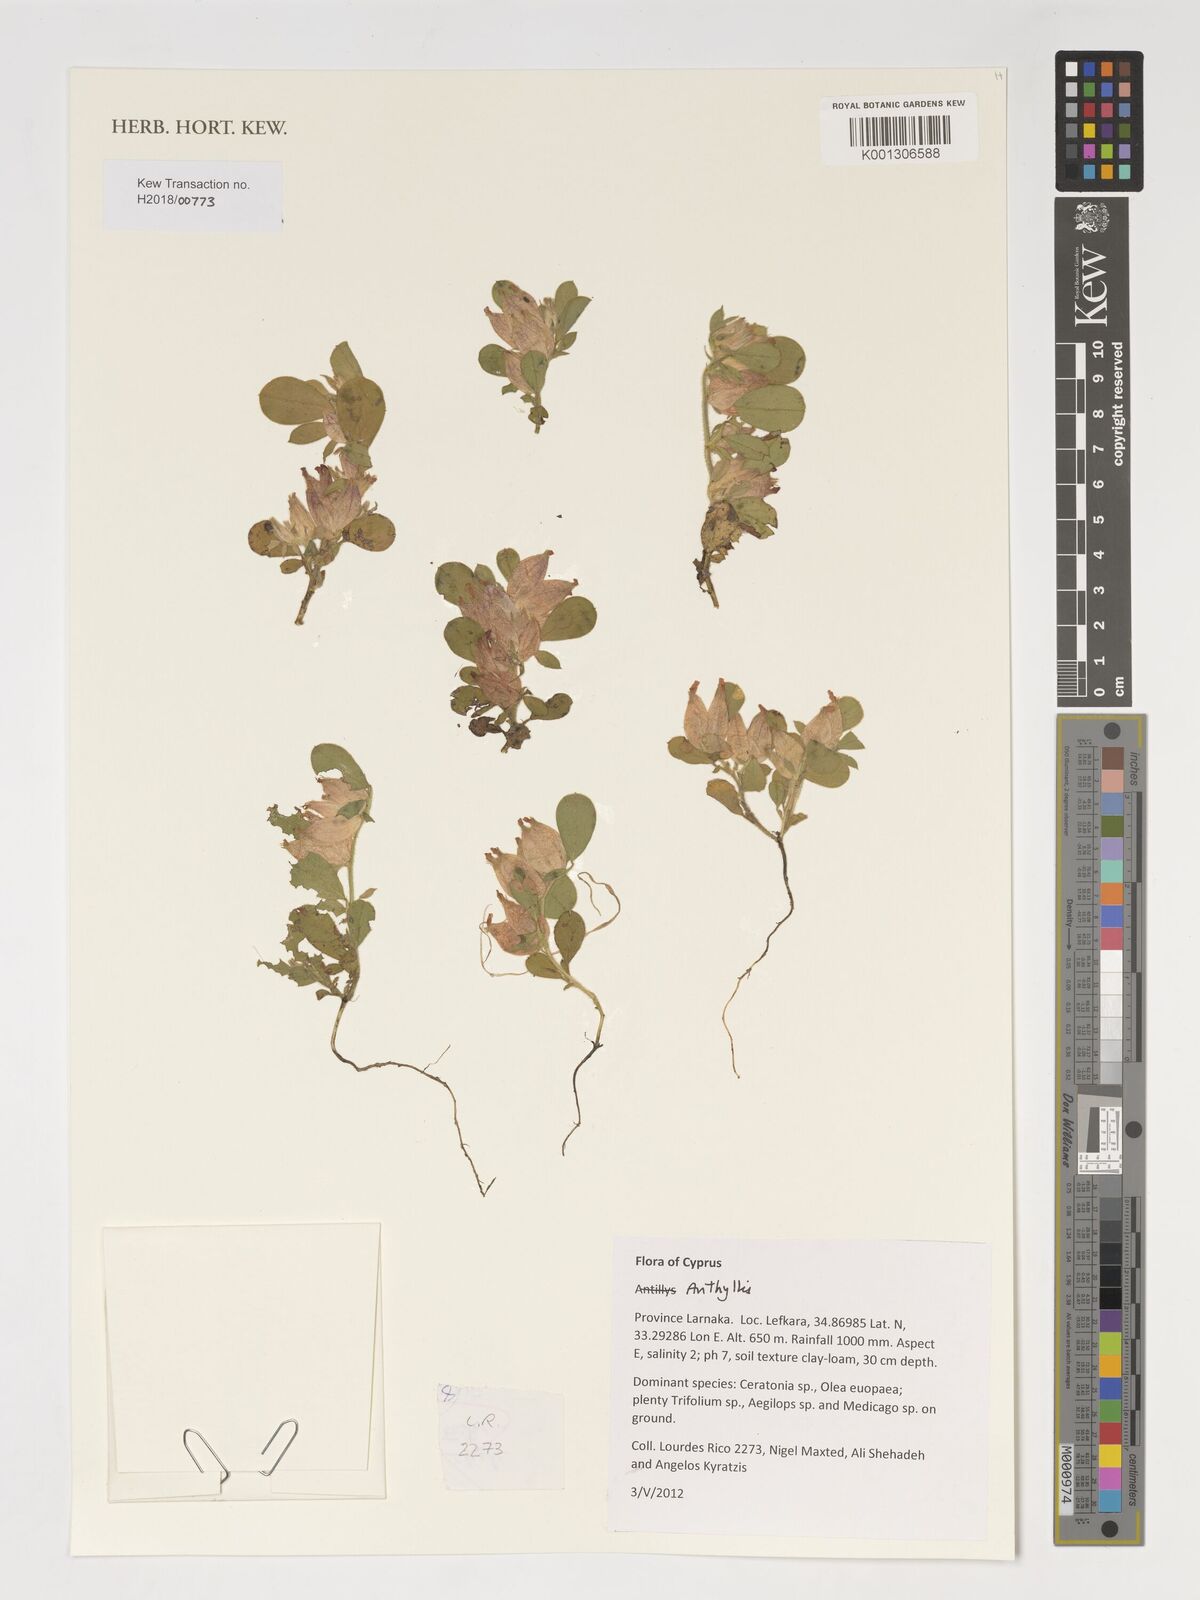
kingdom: Plantae
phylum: Tracheophyta
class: Magnoliopsida
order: Fabales
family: Fabaceae
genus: Anthyllis
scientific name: Anthyllis
